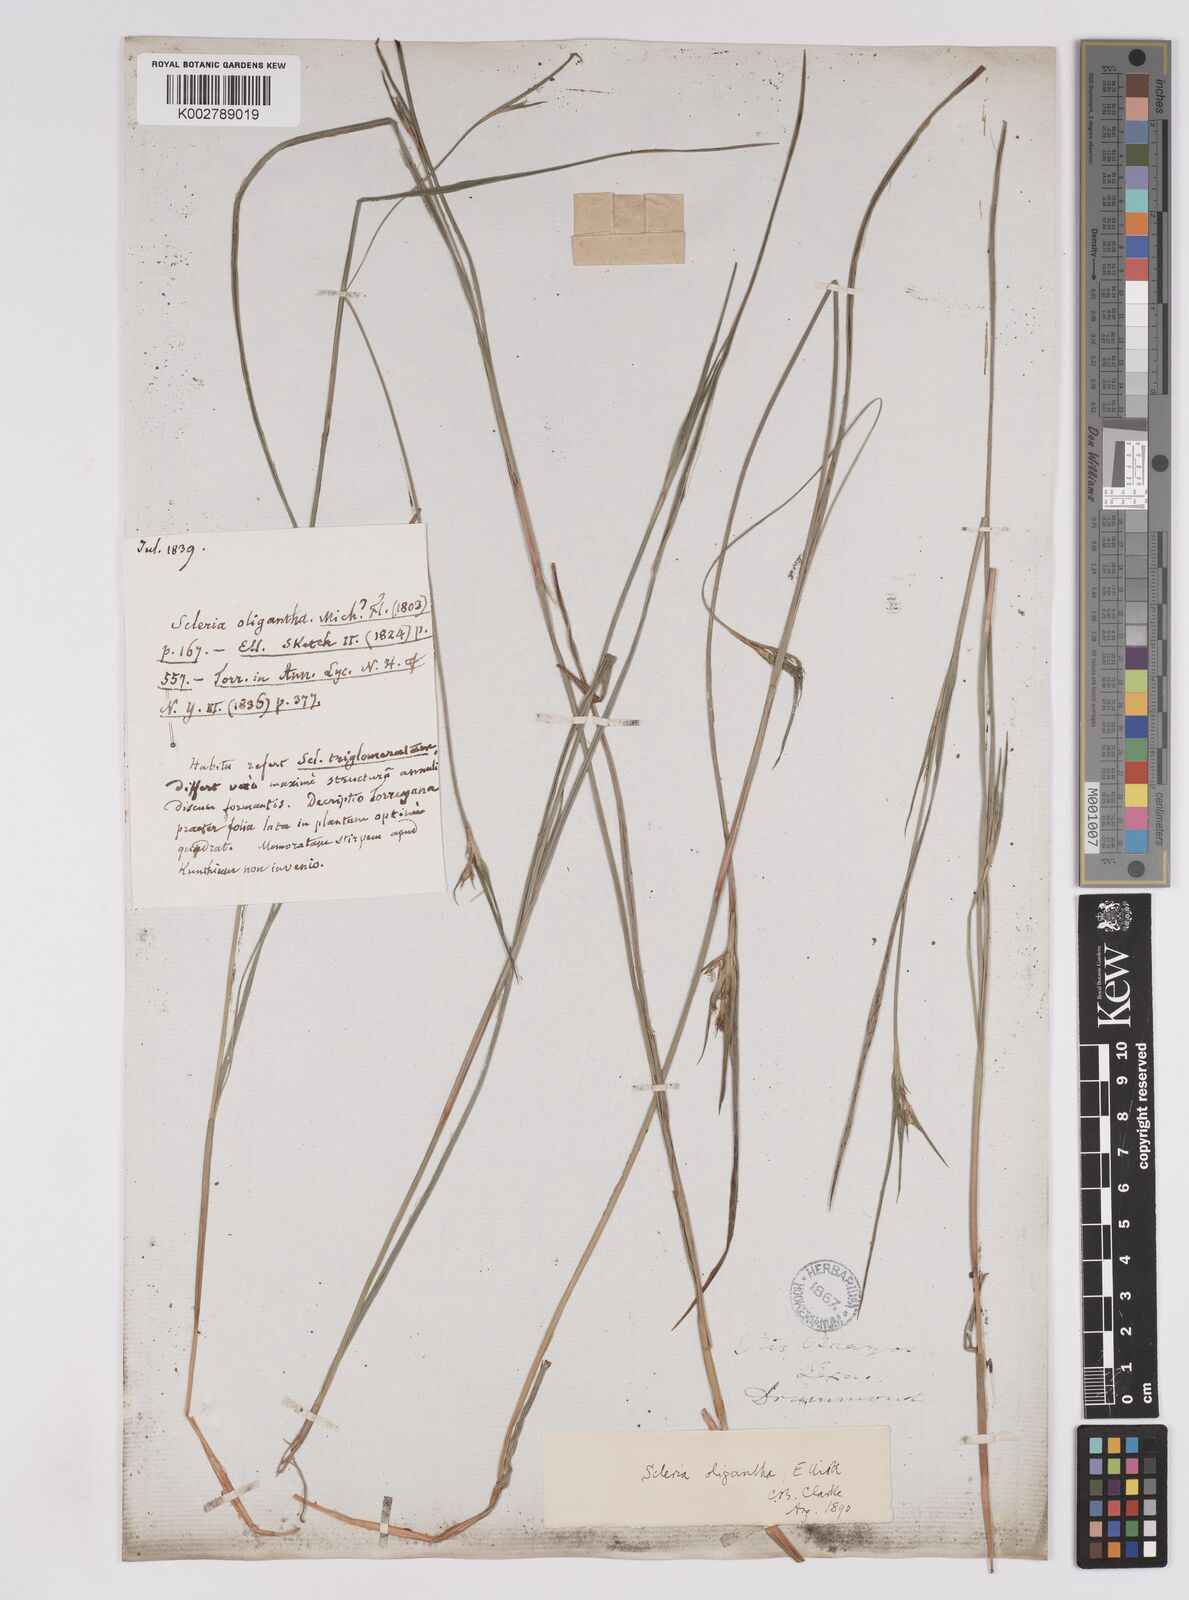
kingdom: Plantae
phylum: Tracheophyta
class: Liliopsida
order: Poales
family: Cyperaceae
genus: Scleria
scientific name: Scleria oligantha
